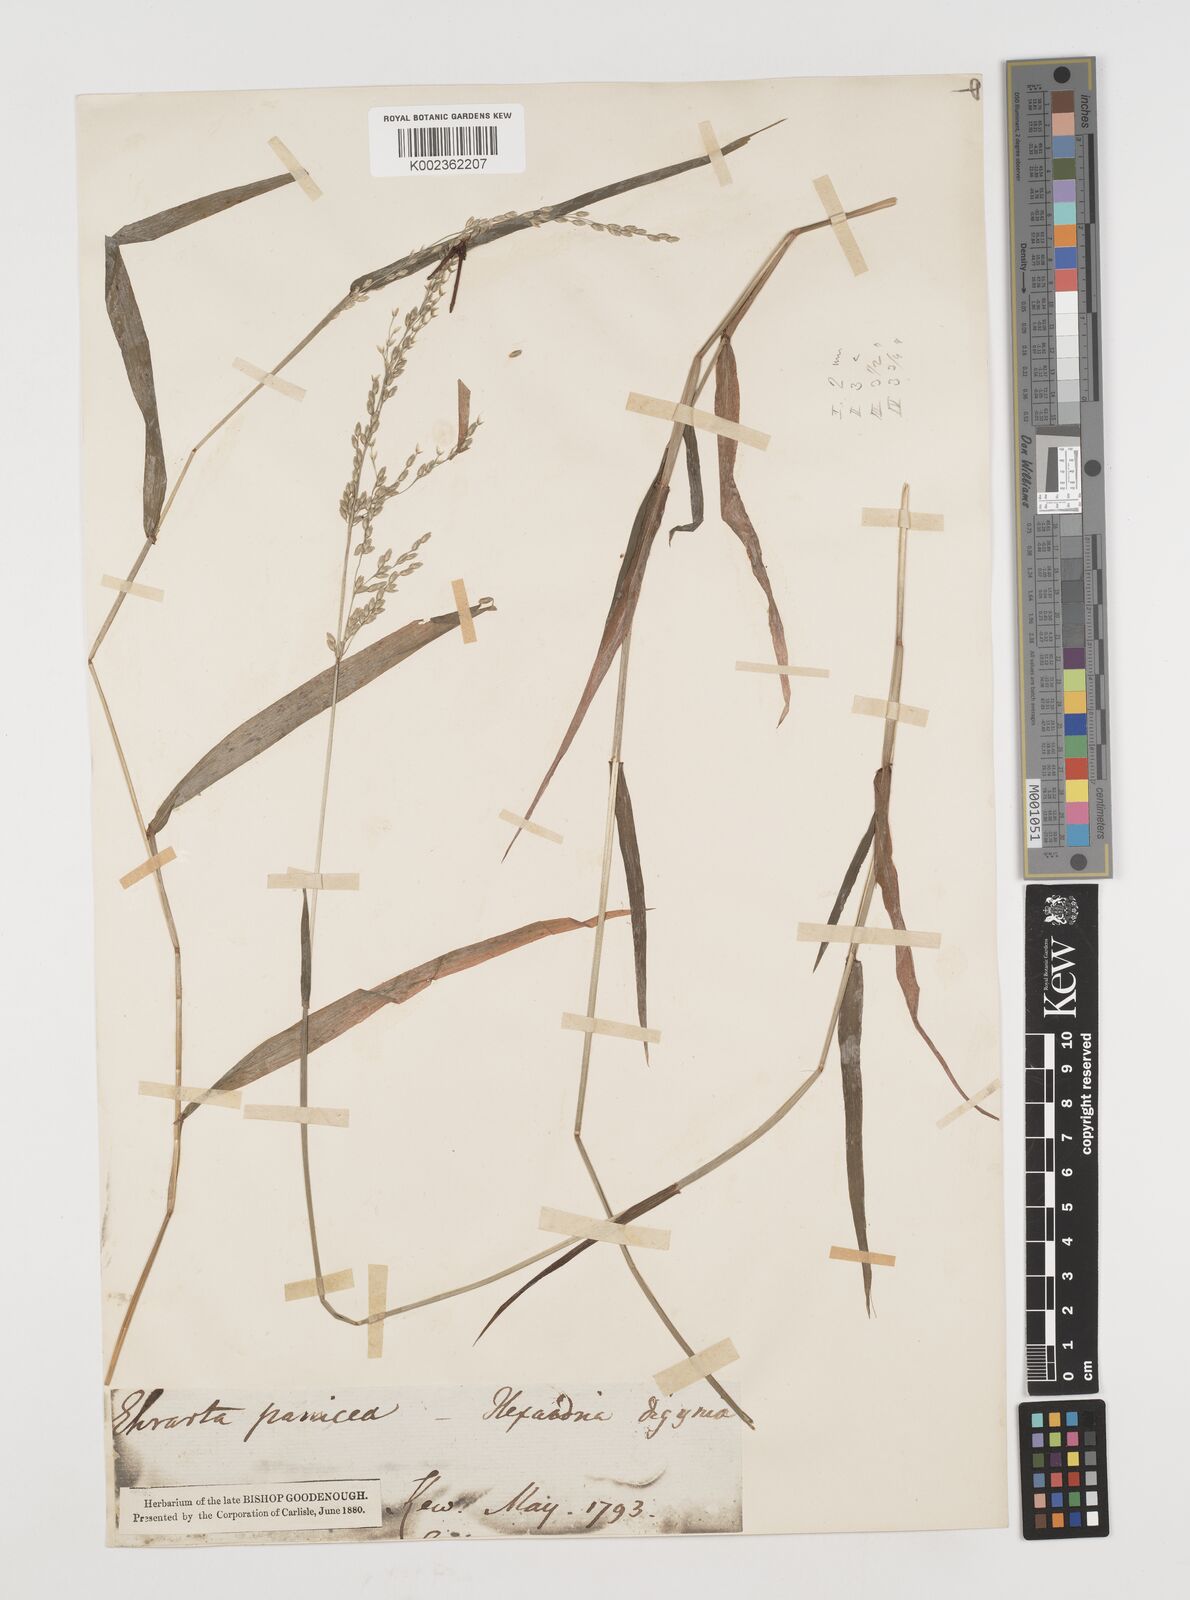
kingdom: Plantae
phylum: Tracheophyta
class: Liliopsida
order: Poales
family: Poaceae
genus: Ehrharta
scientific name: Ehrharta erecta
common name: Panic veldtgrass
